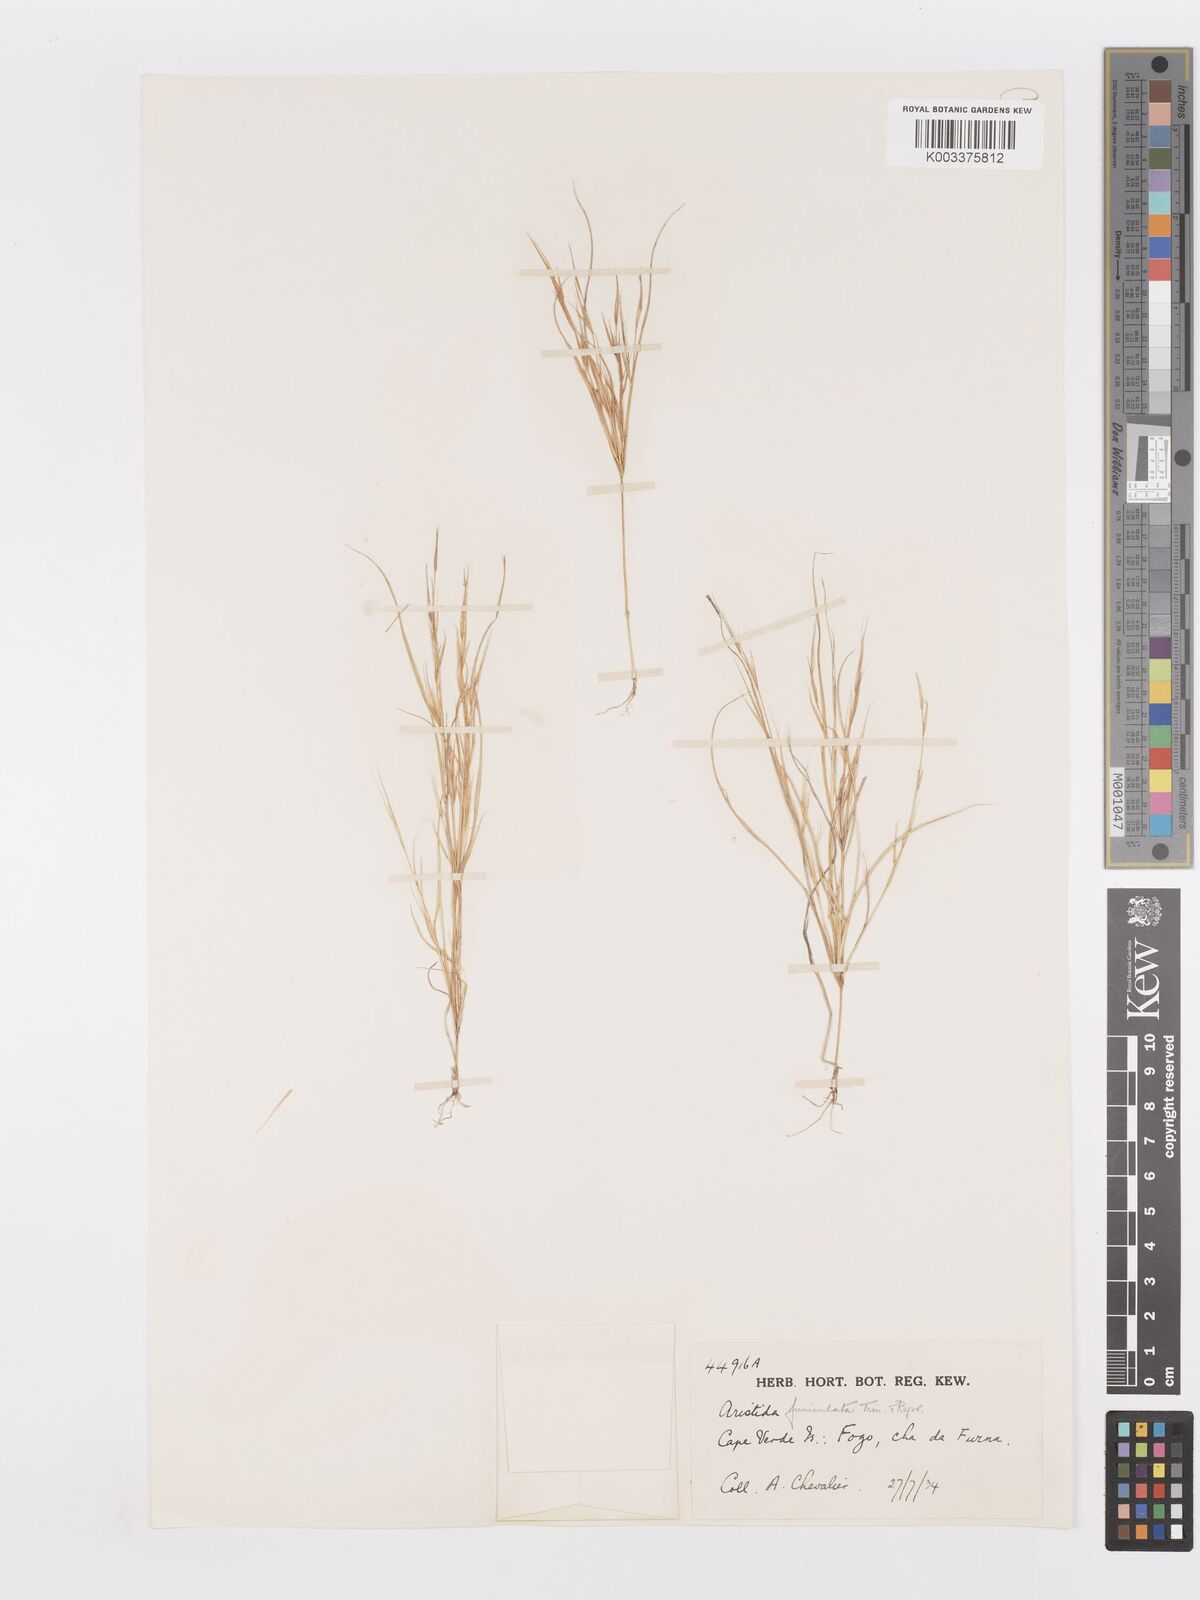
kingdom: Plantae
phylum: Tracheophyta
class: Liliopsida
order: Poales
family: Poaceae
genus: Aristida
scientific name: Aristida funiculata
